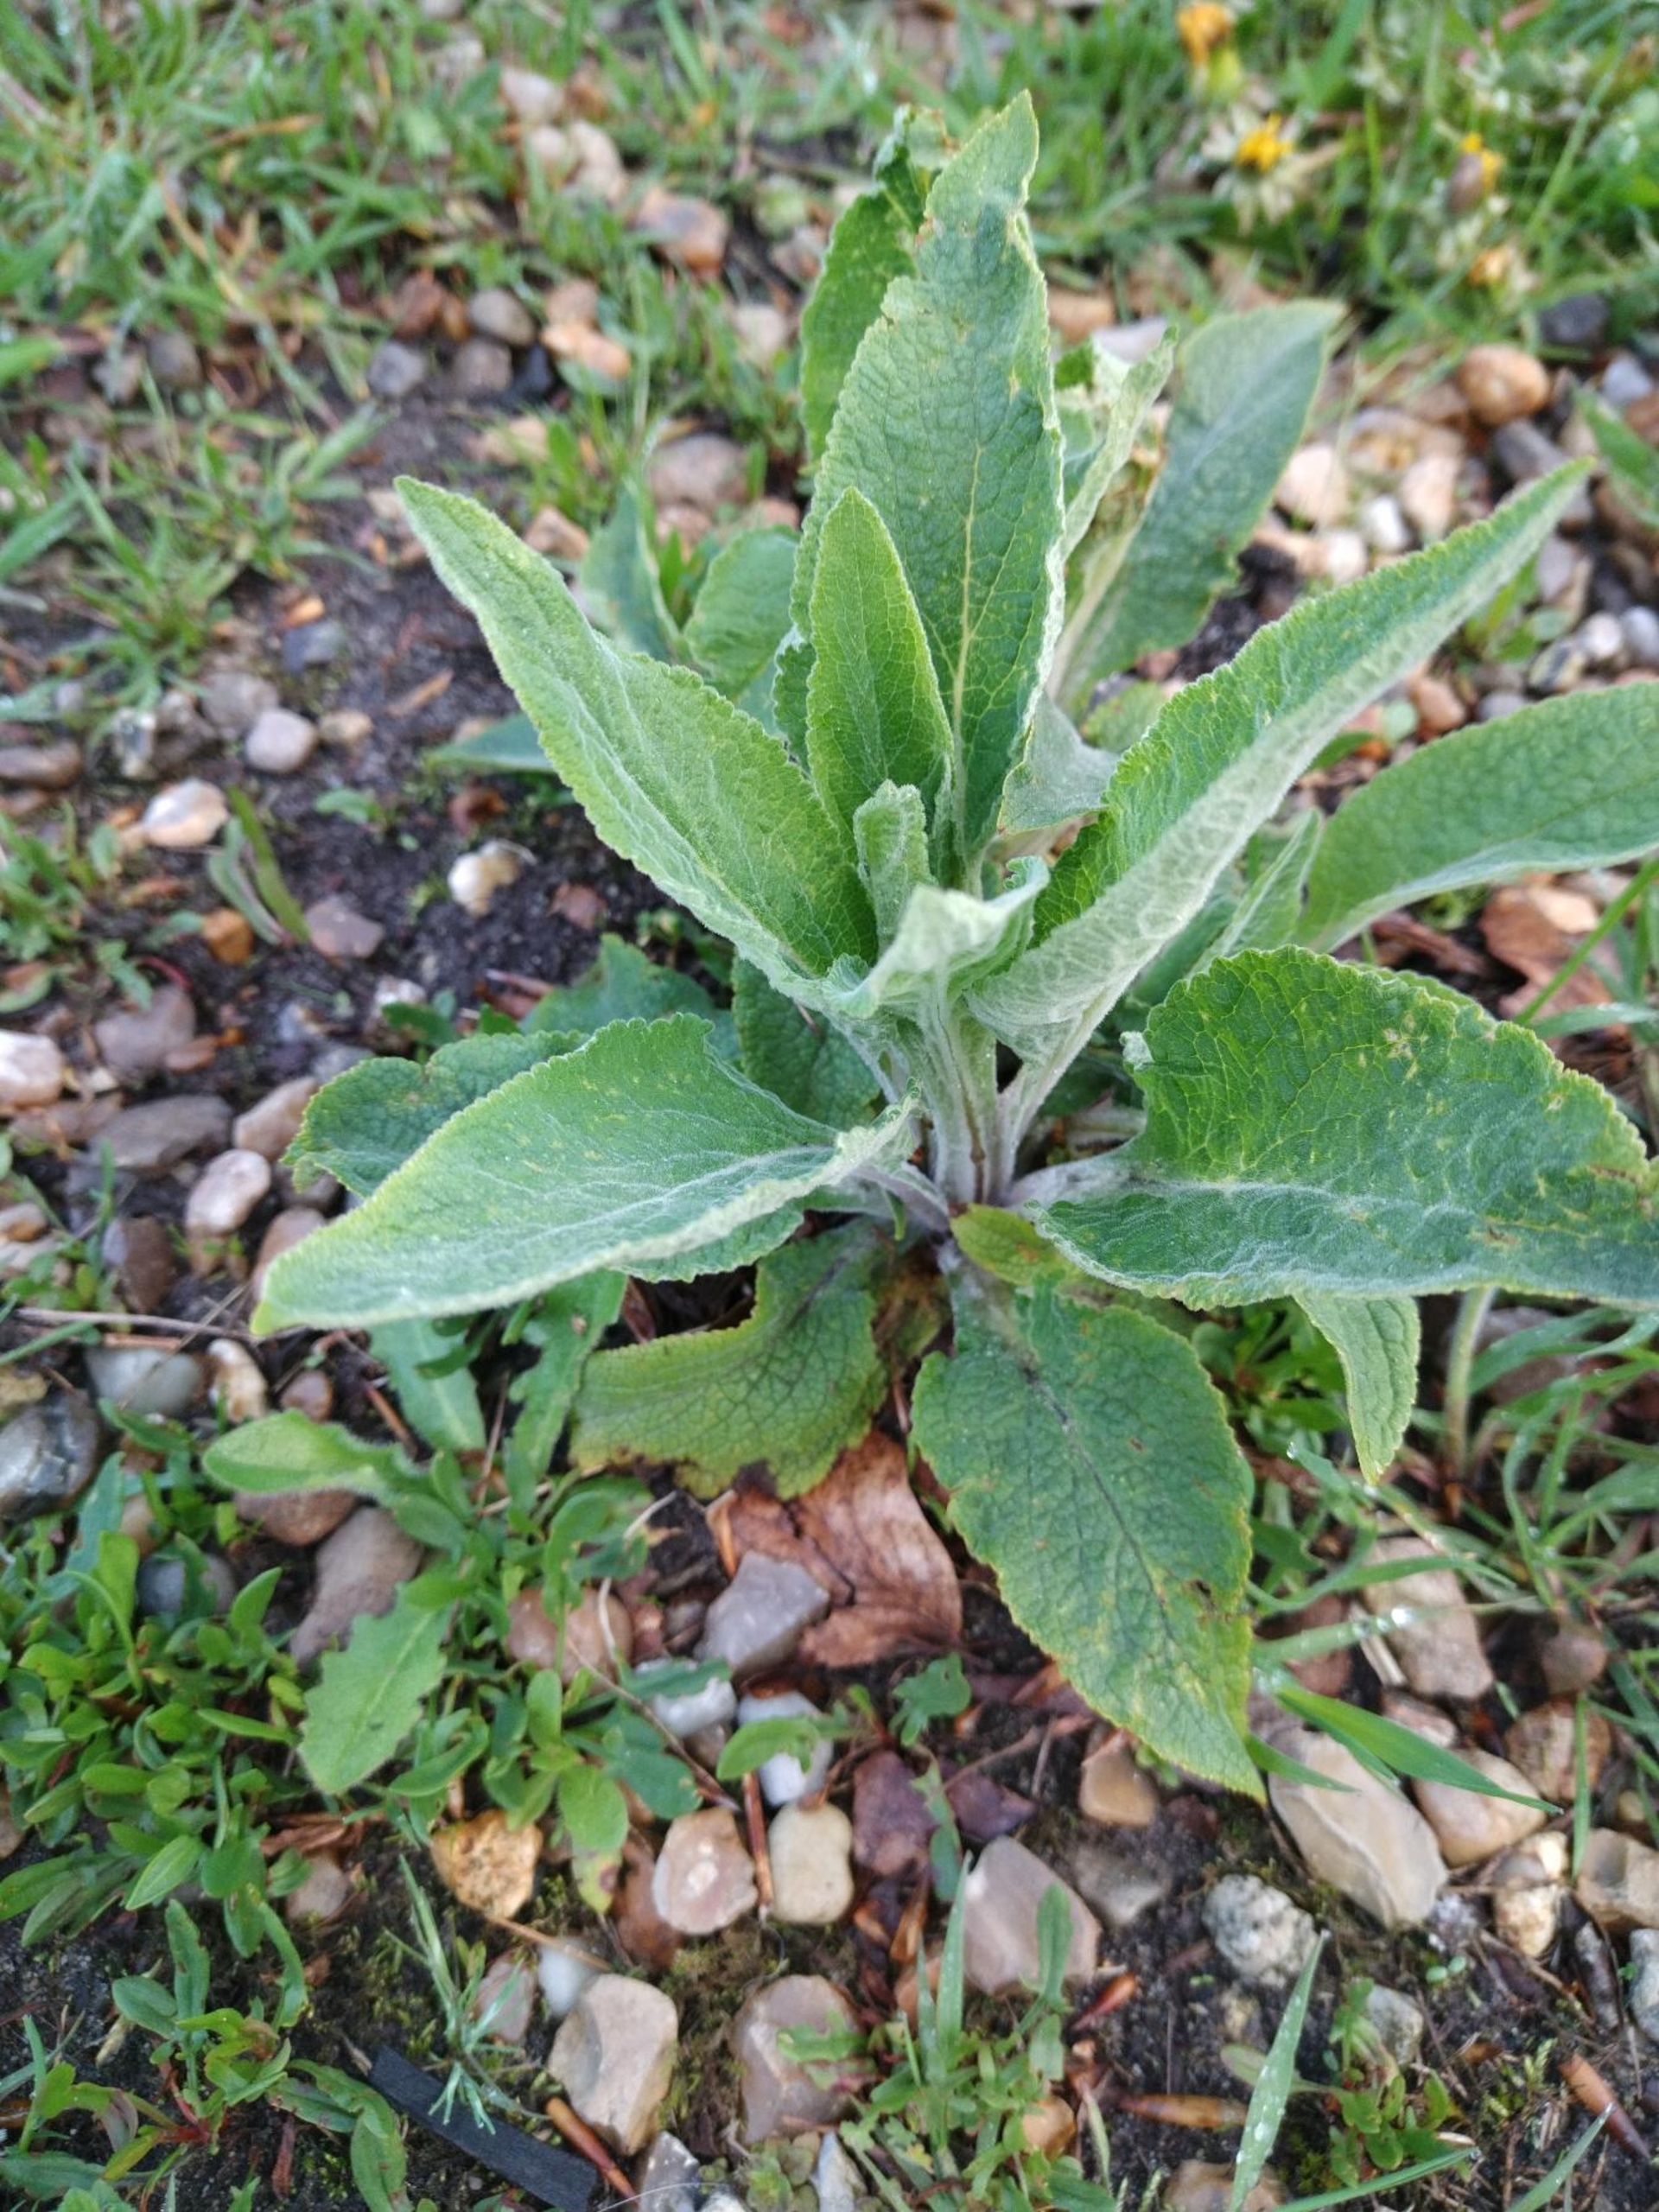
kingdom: Plantae
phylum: Tracheophyta
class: Magnoliopsida
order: Lamiales
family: Plantaginaceae
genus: Digitalis
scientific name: Digitalis purpurea
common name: Almindelig fingerbøl
